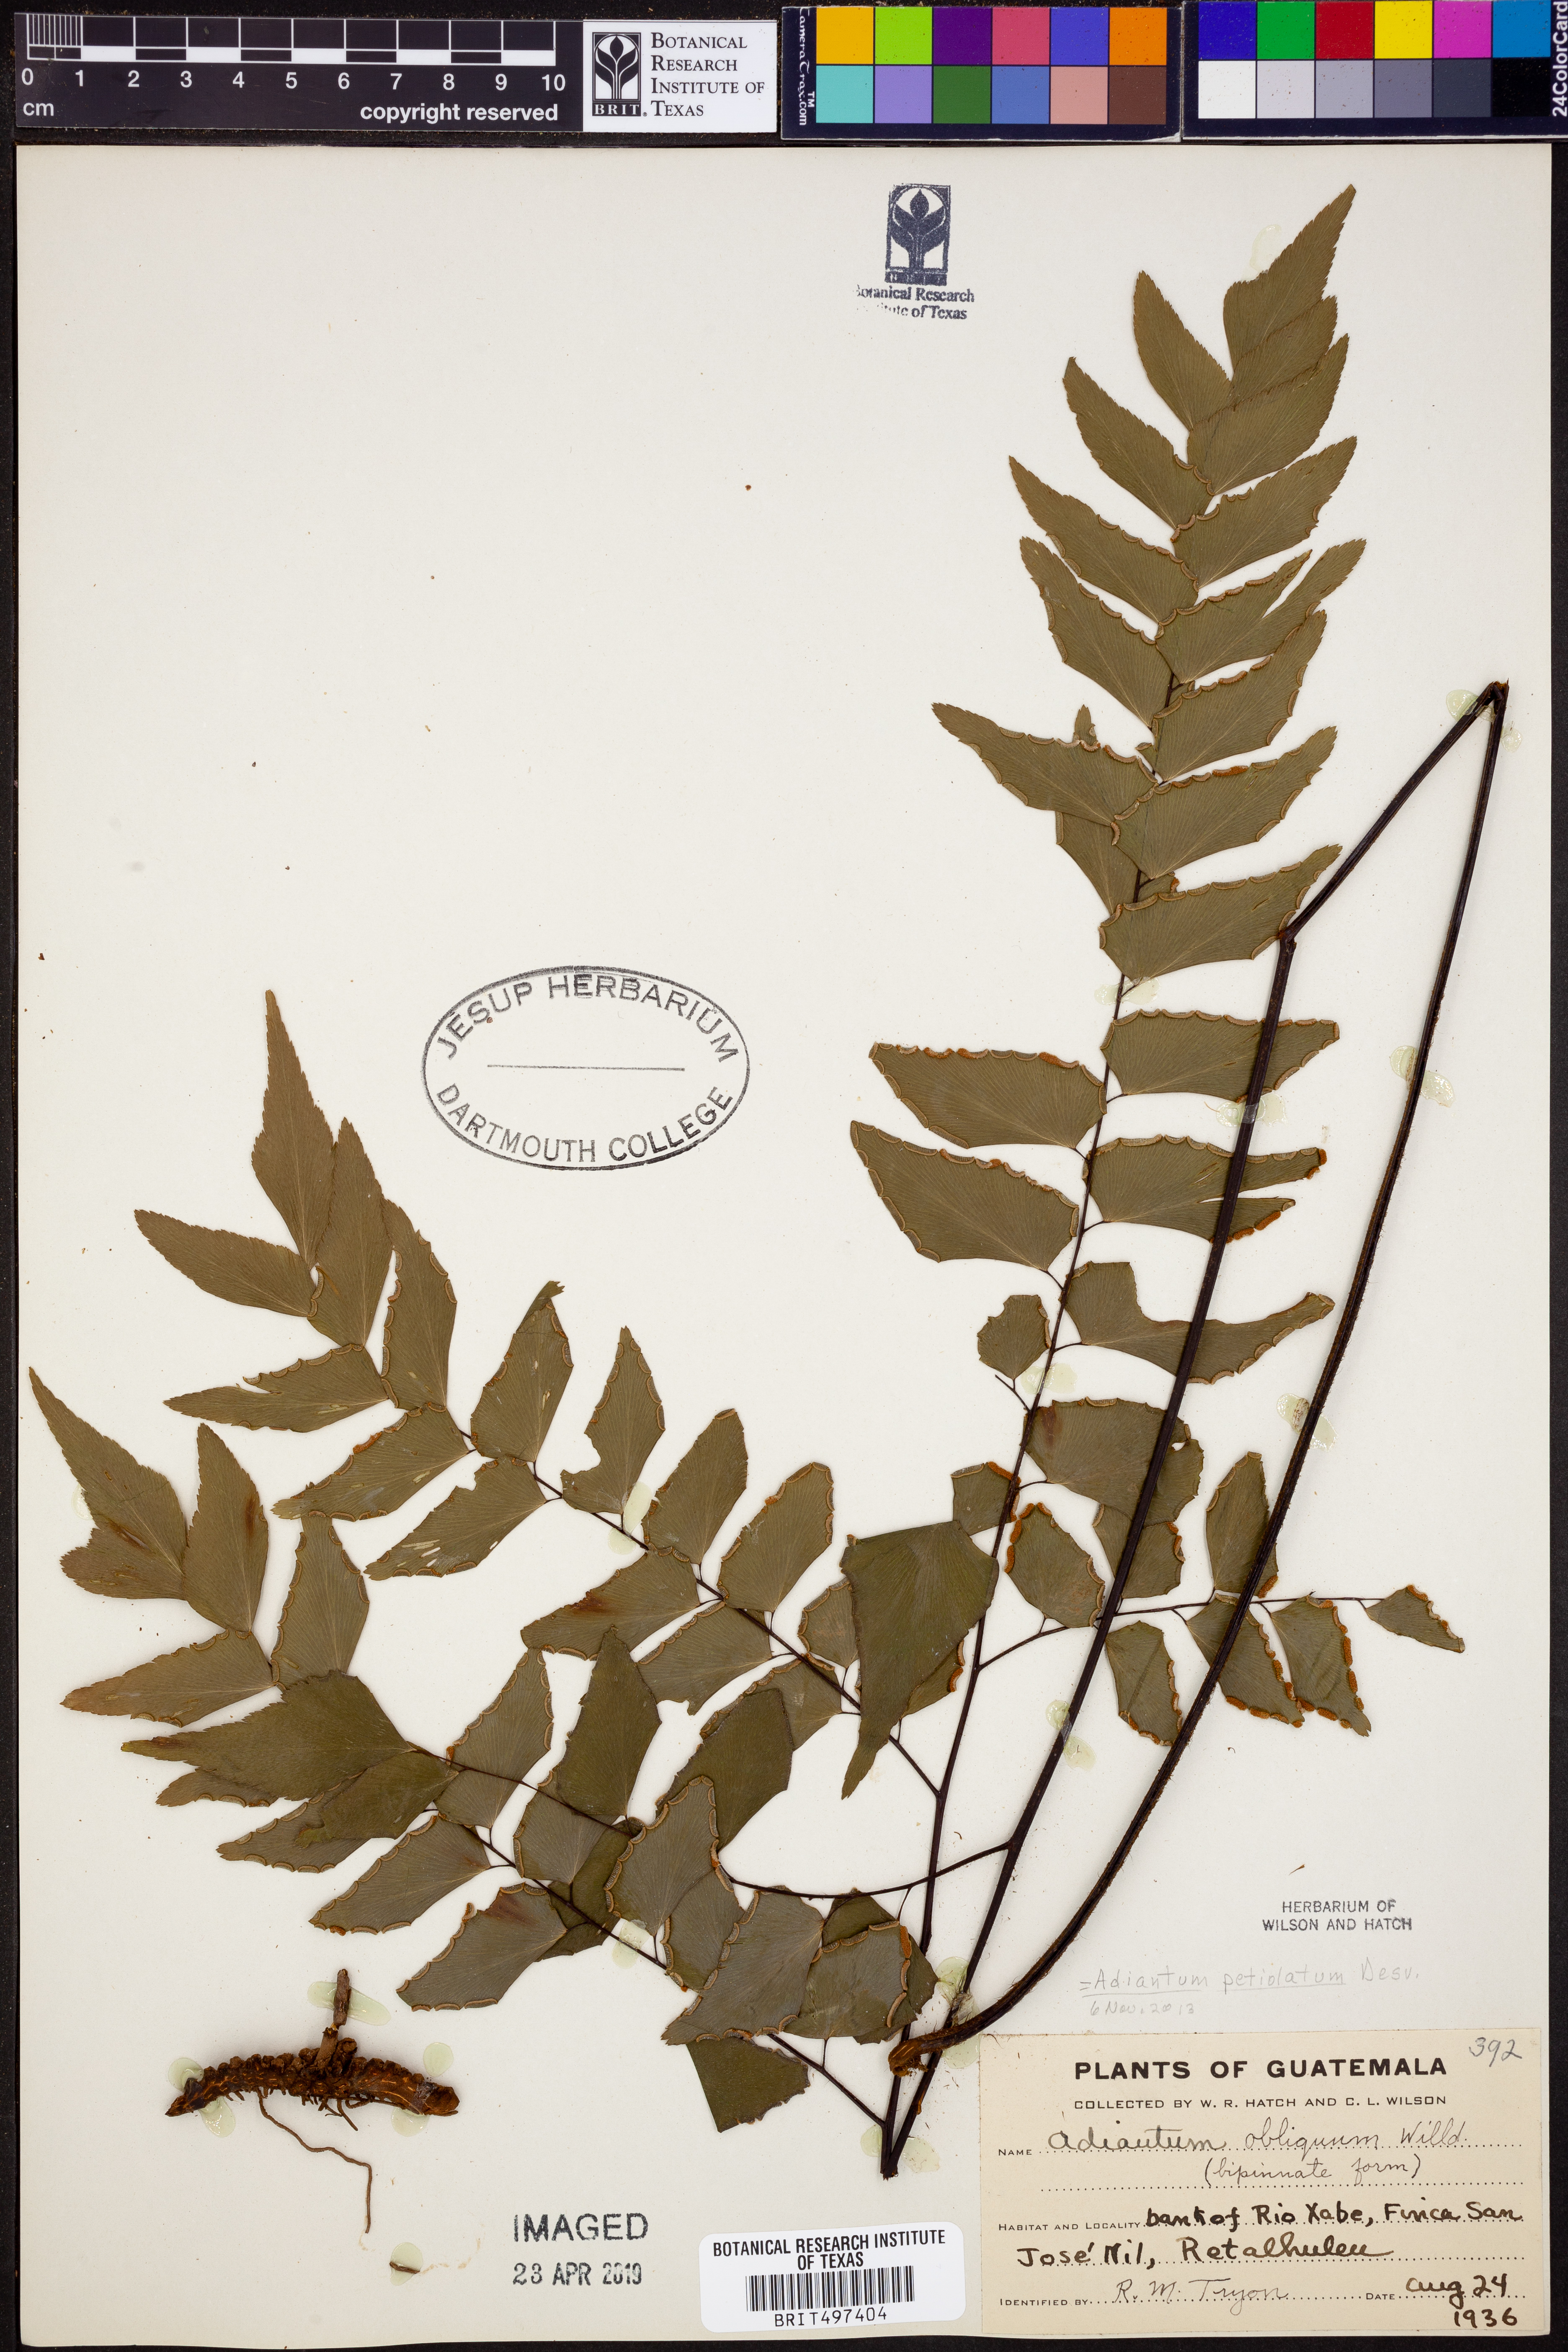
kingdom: Plantae
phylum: Tracheophyta
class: Polypodiopsida
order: Polypodiales
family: Pteridaceae
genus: Adiantum
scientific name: Adiantum petiolatum
